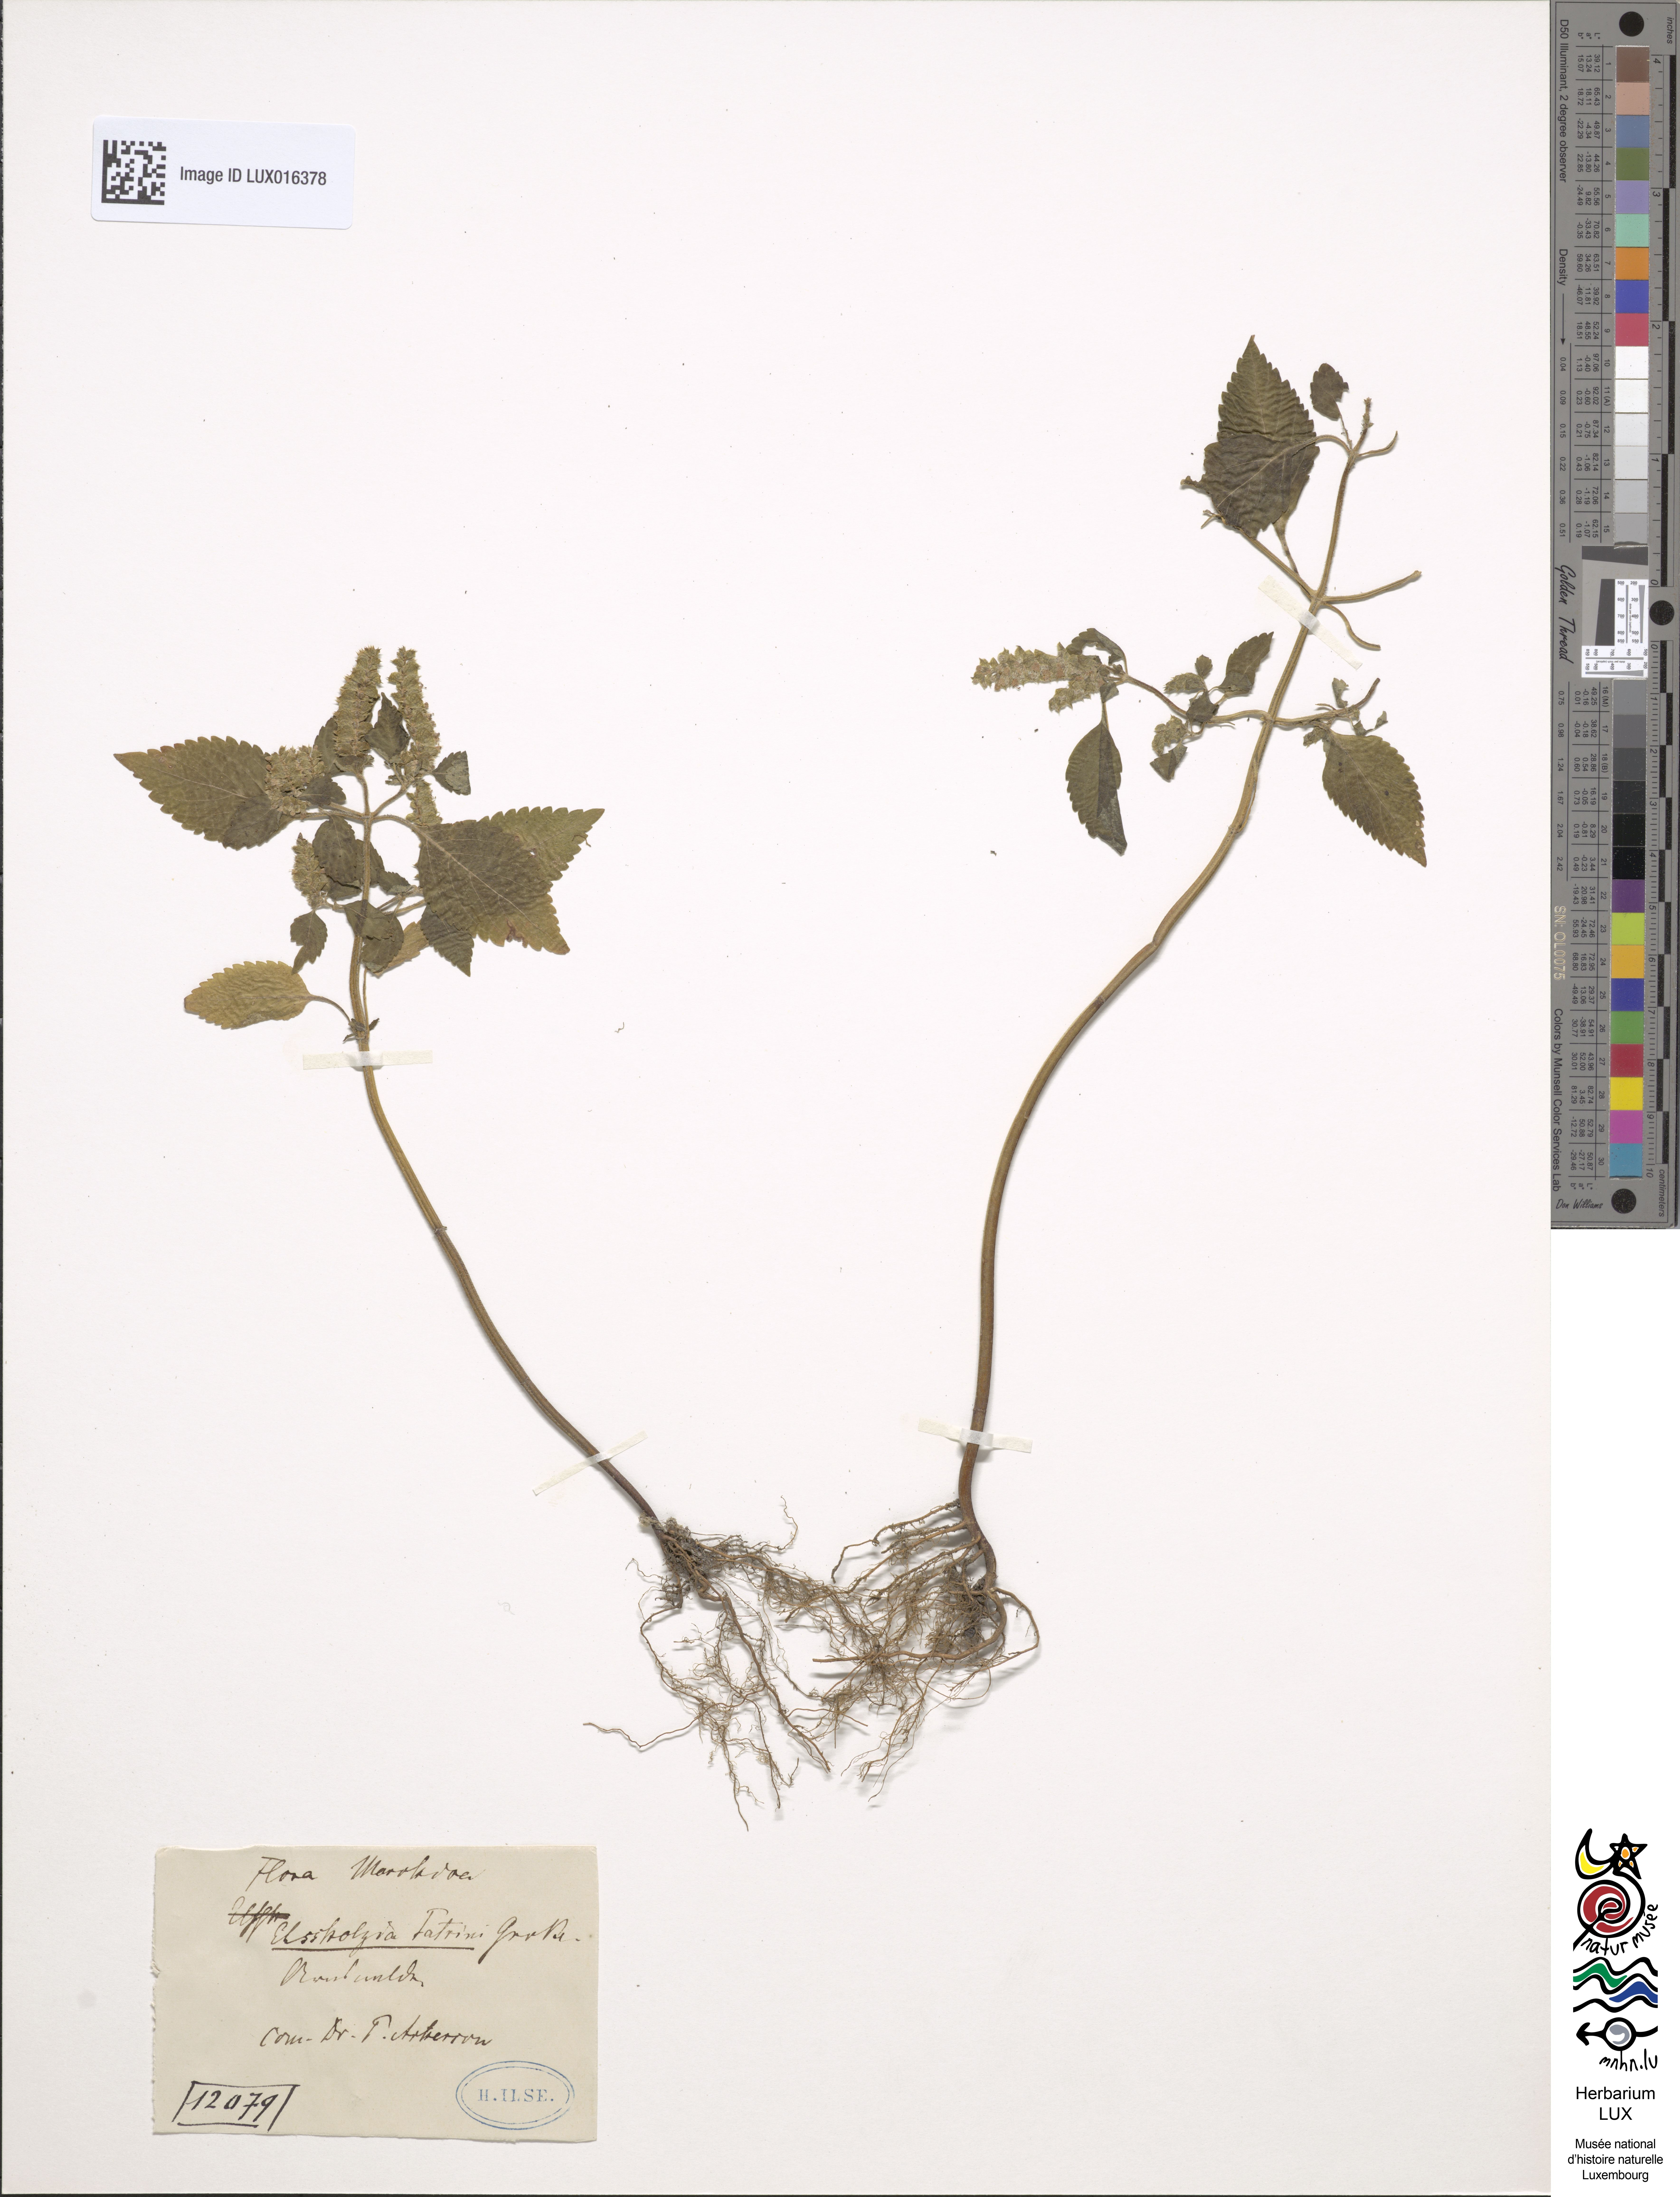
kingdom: Plantae
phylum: Tracheophyta
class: Magnoliopsida
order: Lamiales
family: Lamiaceae
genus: Elsholtzia
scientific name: Elsholtzia ciliata
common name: Ciliate elsholtzia
